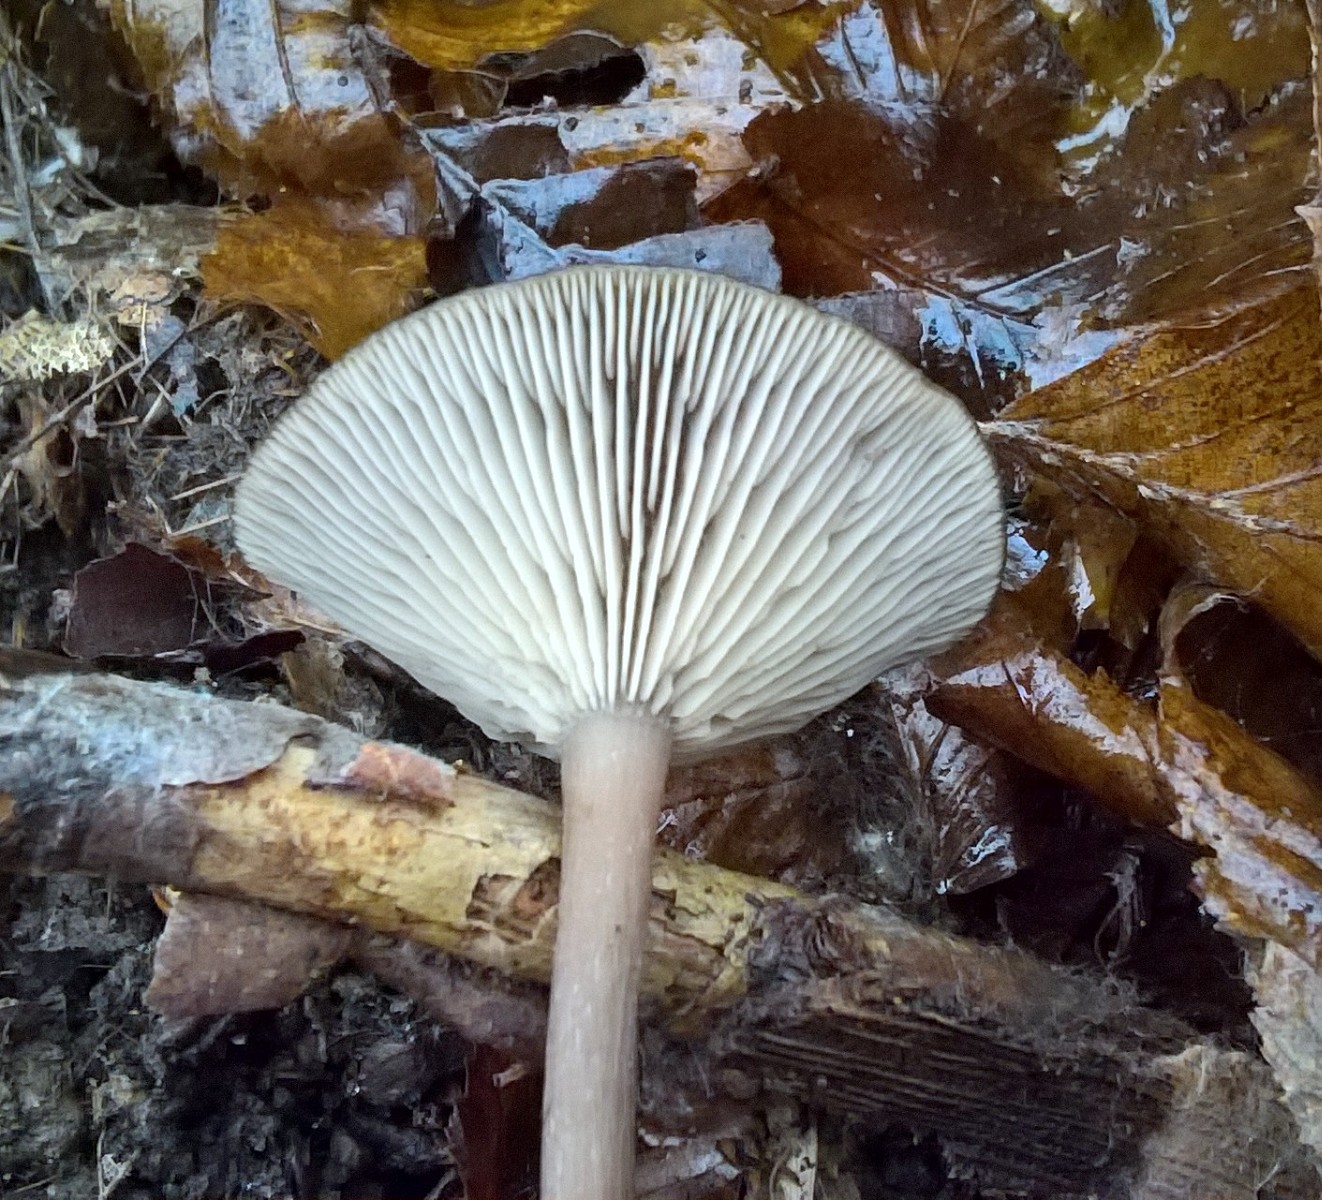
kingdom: Fungi
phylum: Basidiomycota
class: Agaricomycetes
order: Agaricales
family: Pseudoclitocybaceae
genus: Pseudoclitocybe
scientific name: Pseudoclitocybe cyathiformis
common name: almindelig bægertragthat
